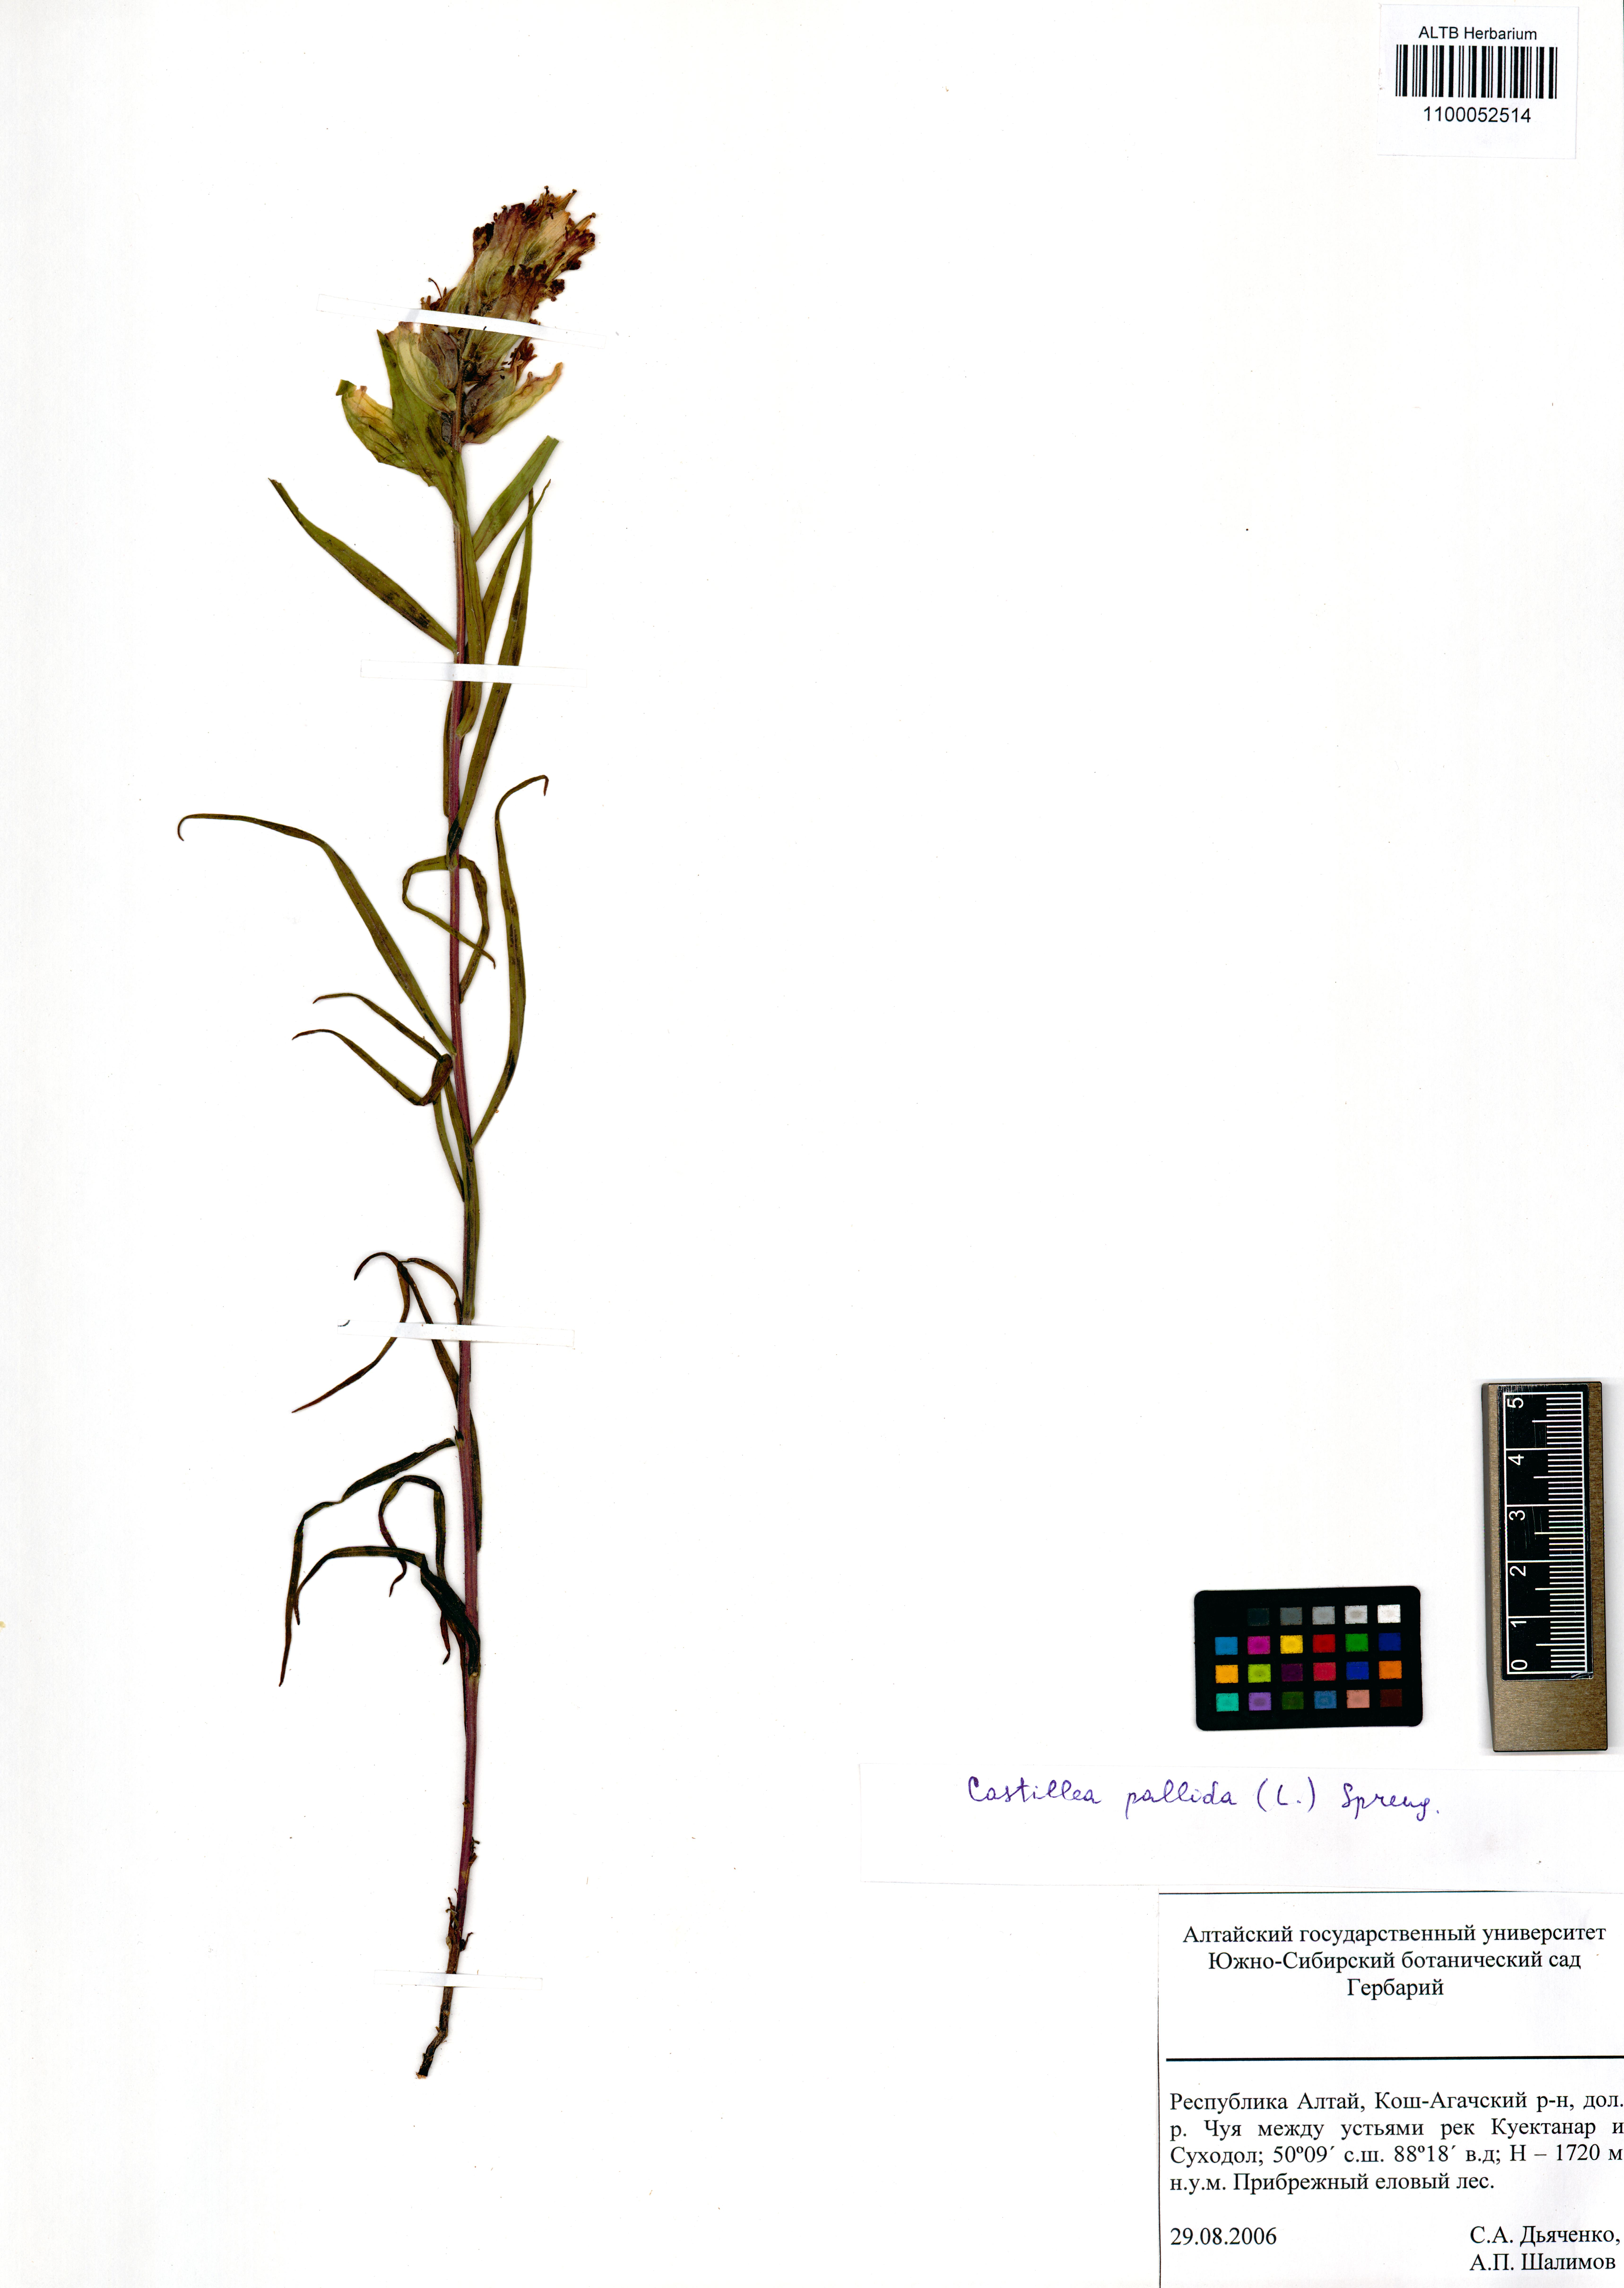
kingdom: Plantae
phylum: Tracheophyta
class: Magnoliopsida
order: Lamiales
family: Orobanchaceae
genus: Castilleja
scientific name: Castilleja pallida
